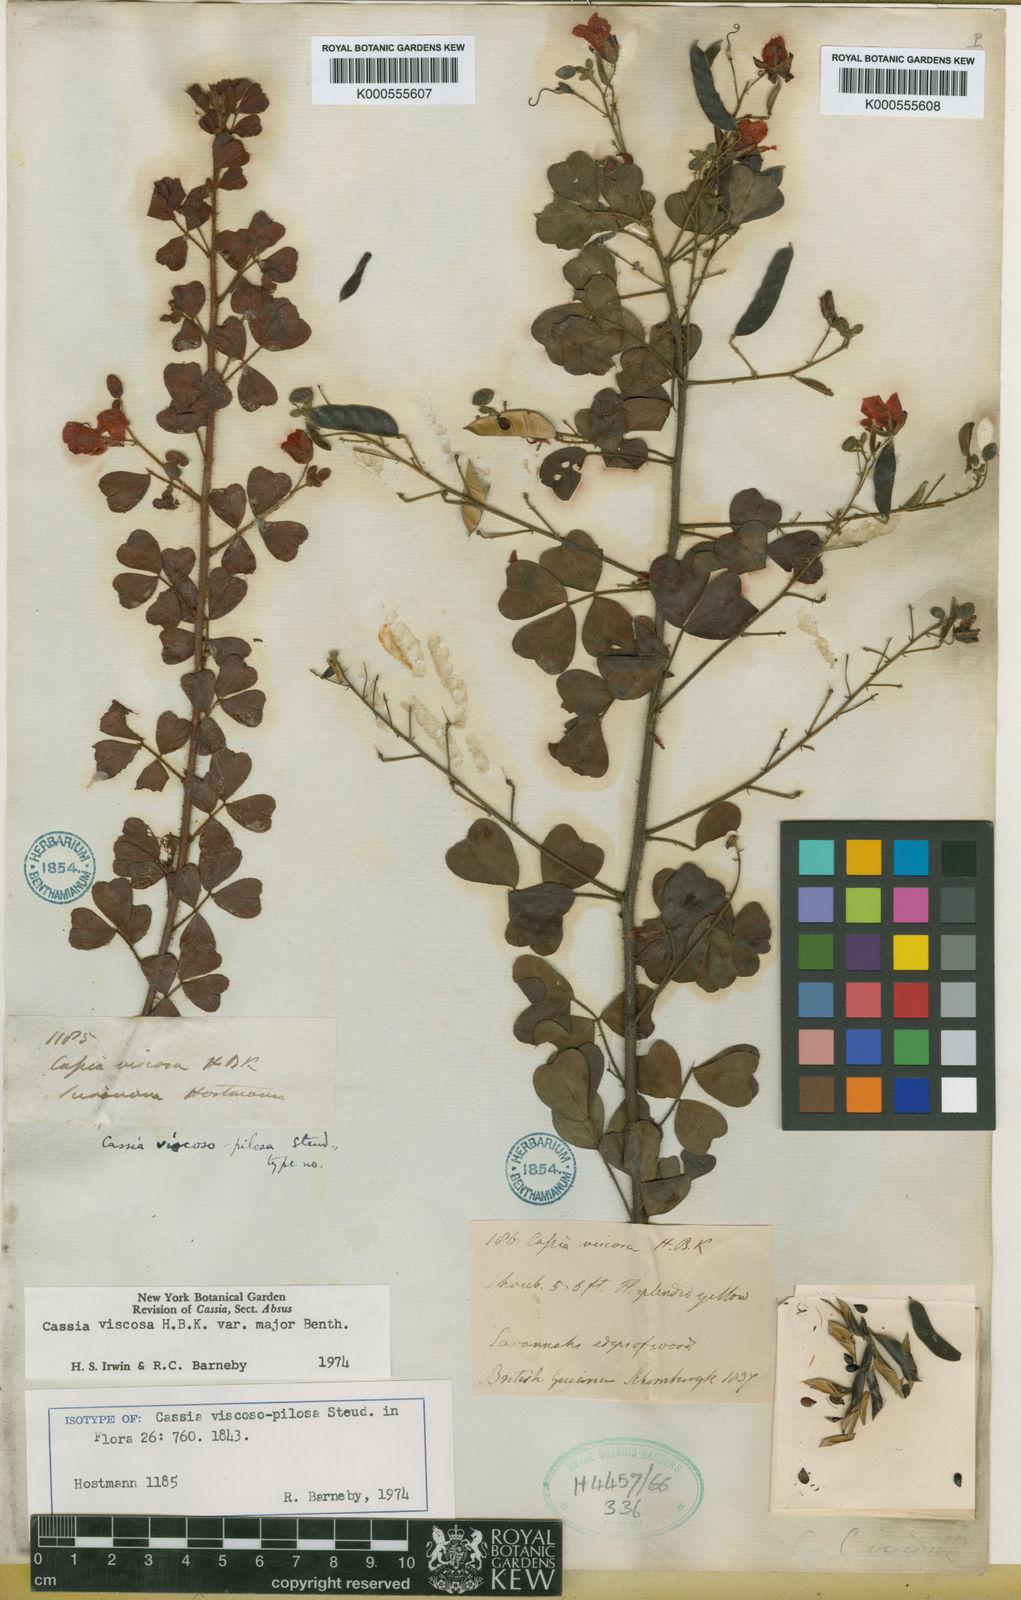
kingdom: Plantae
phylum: Tracheophyta
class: Magnoliopsida
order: Fabales
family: Fabaceae
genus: Chamaecrista
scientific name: Chamaecrista viscosa
